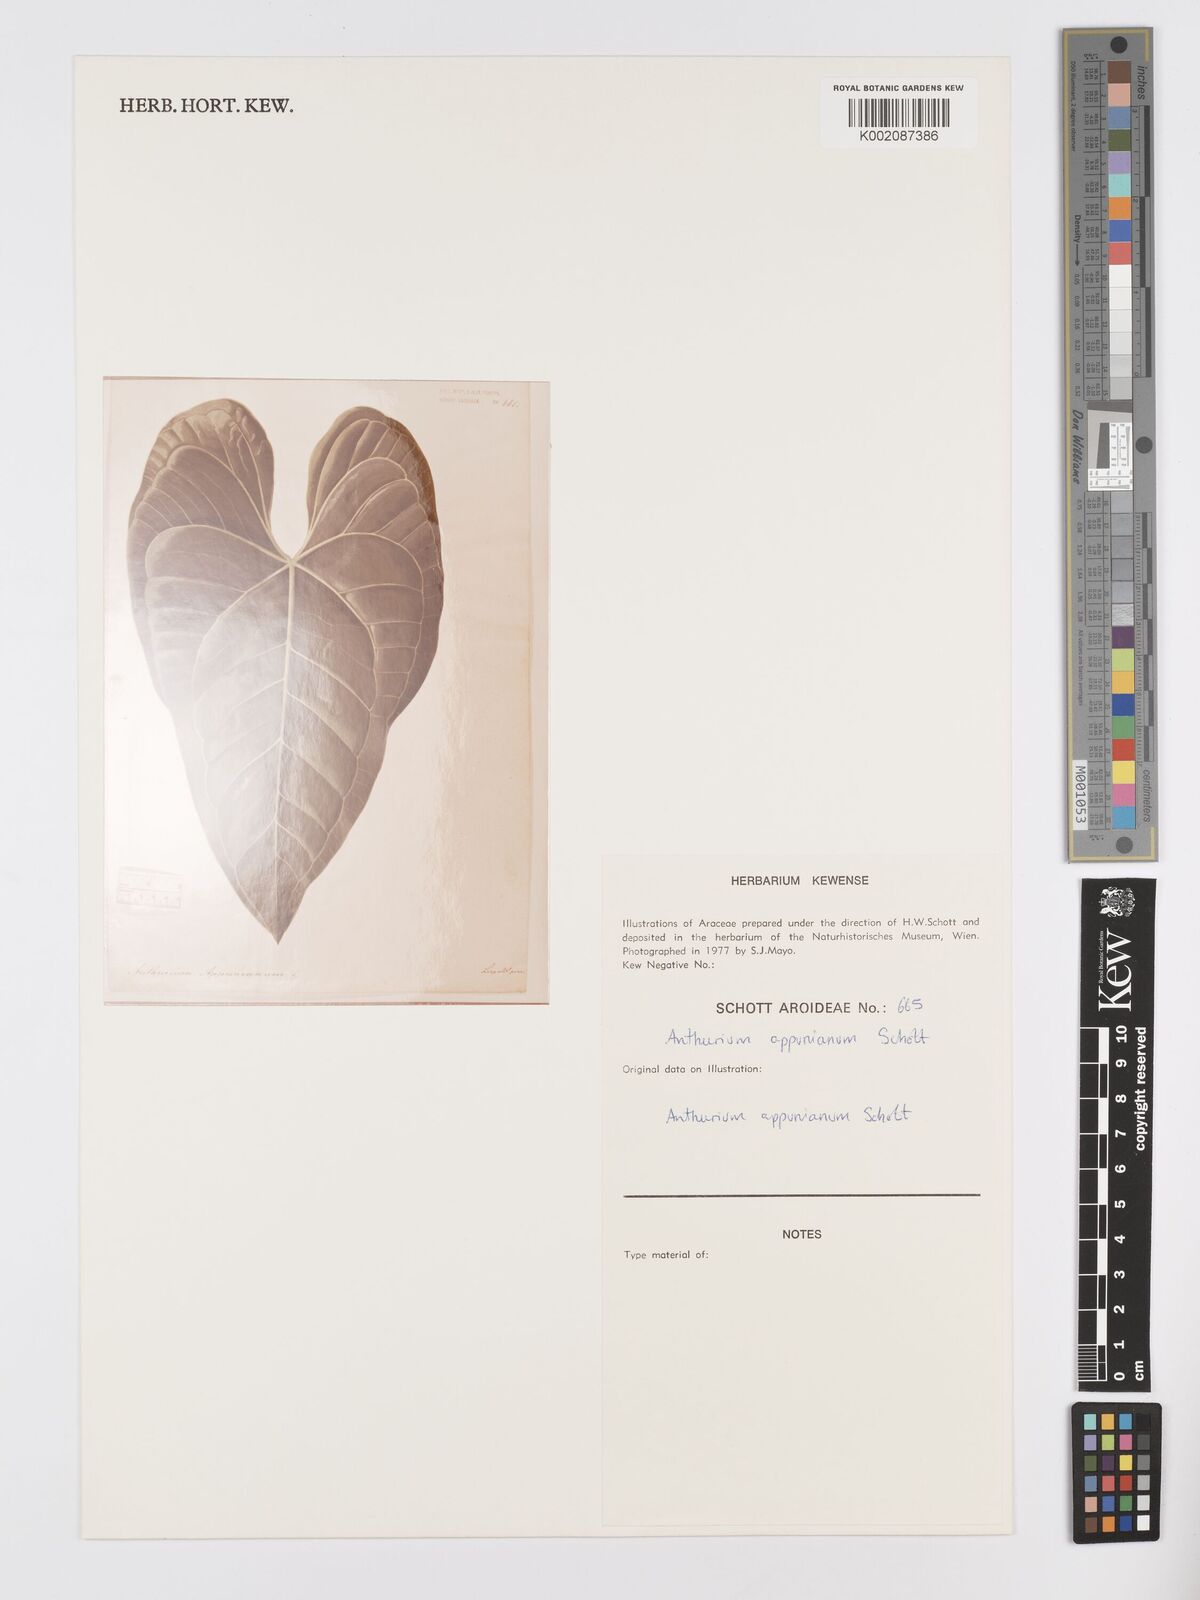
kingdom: Plantae
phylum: Tracheophyta
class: Liliopsida
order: Alismatales
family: Araceae
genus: Anthurium
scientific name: Anthurium cartilagineum
